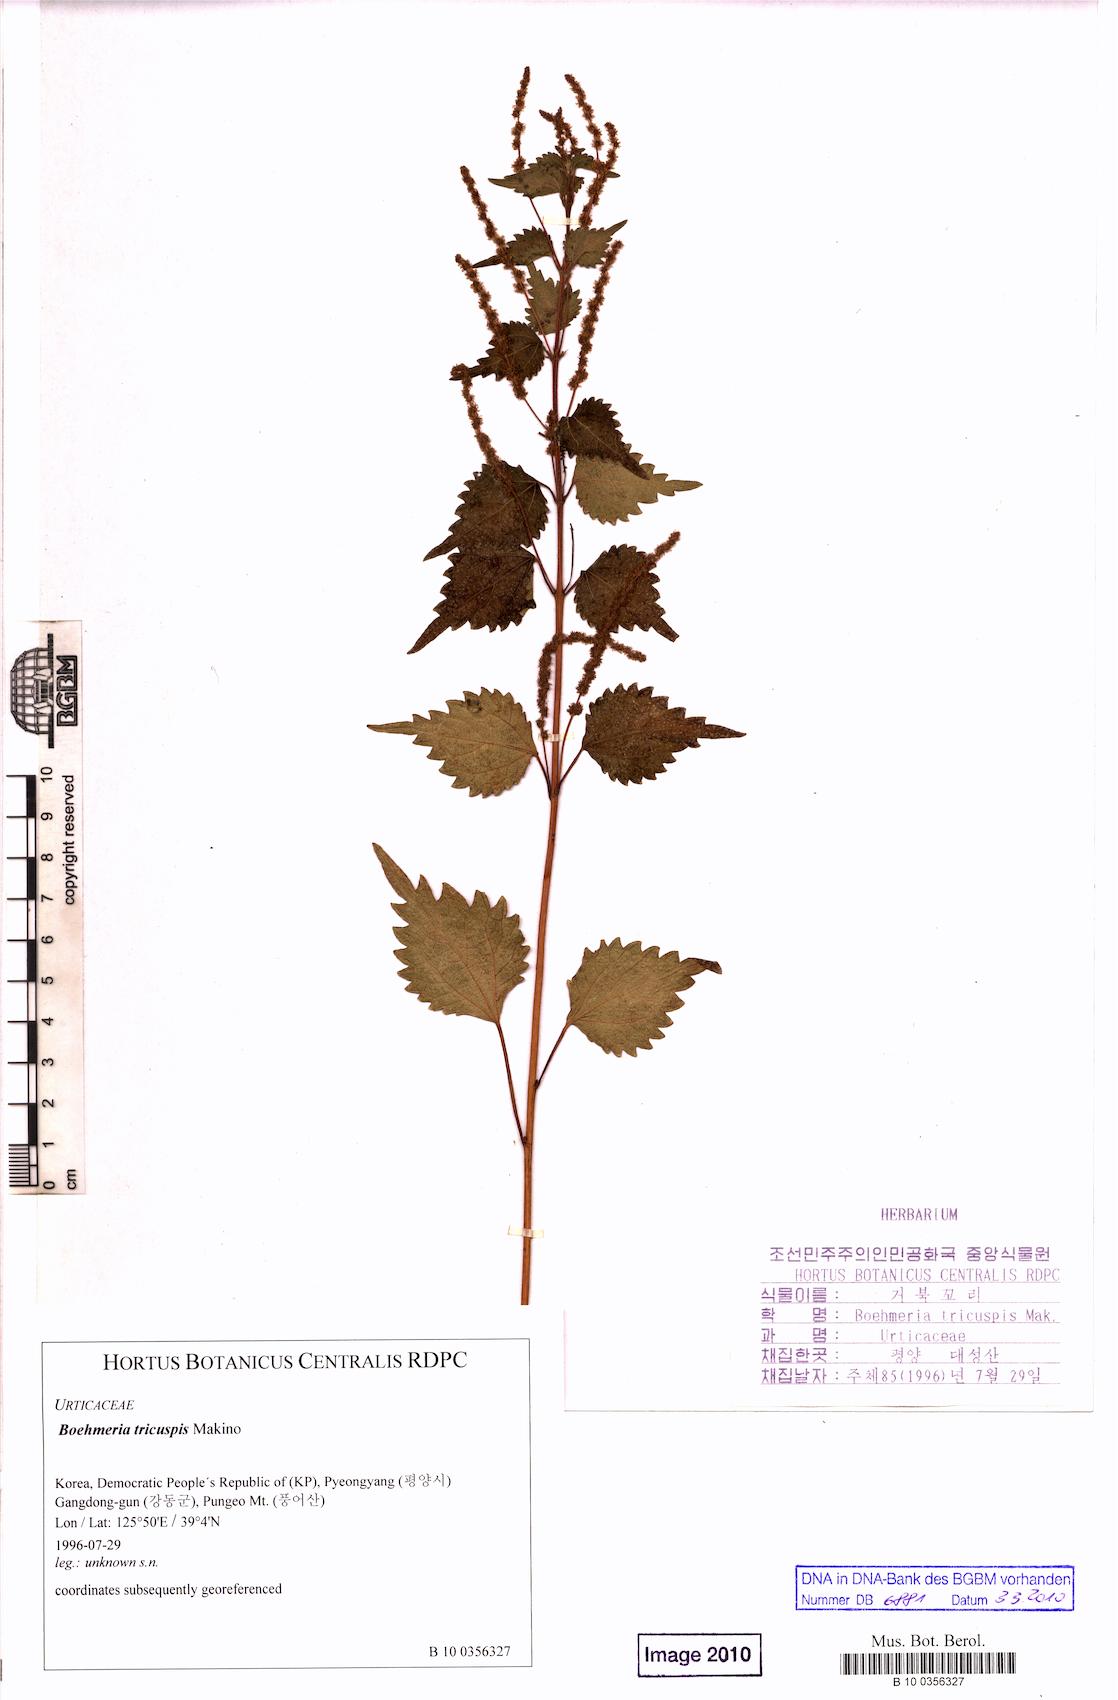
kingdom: Plantae
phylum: Tracheophyta
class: Magnoliopsida
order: Rosales
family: Urticaceae
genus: Boehmeria
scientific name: Boehmeria japonica
